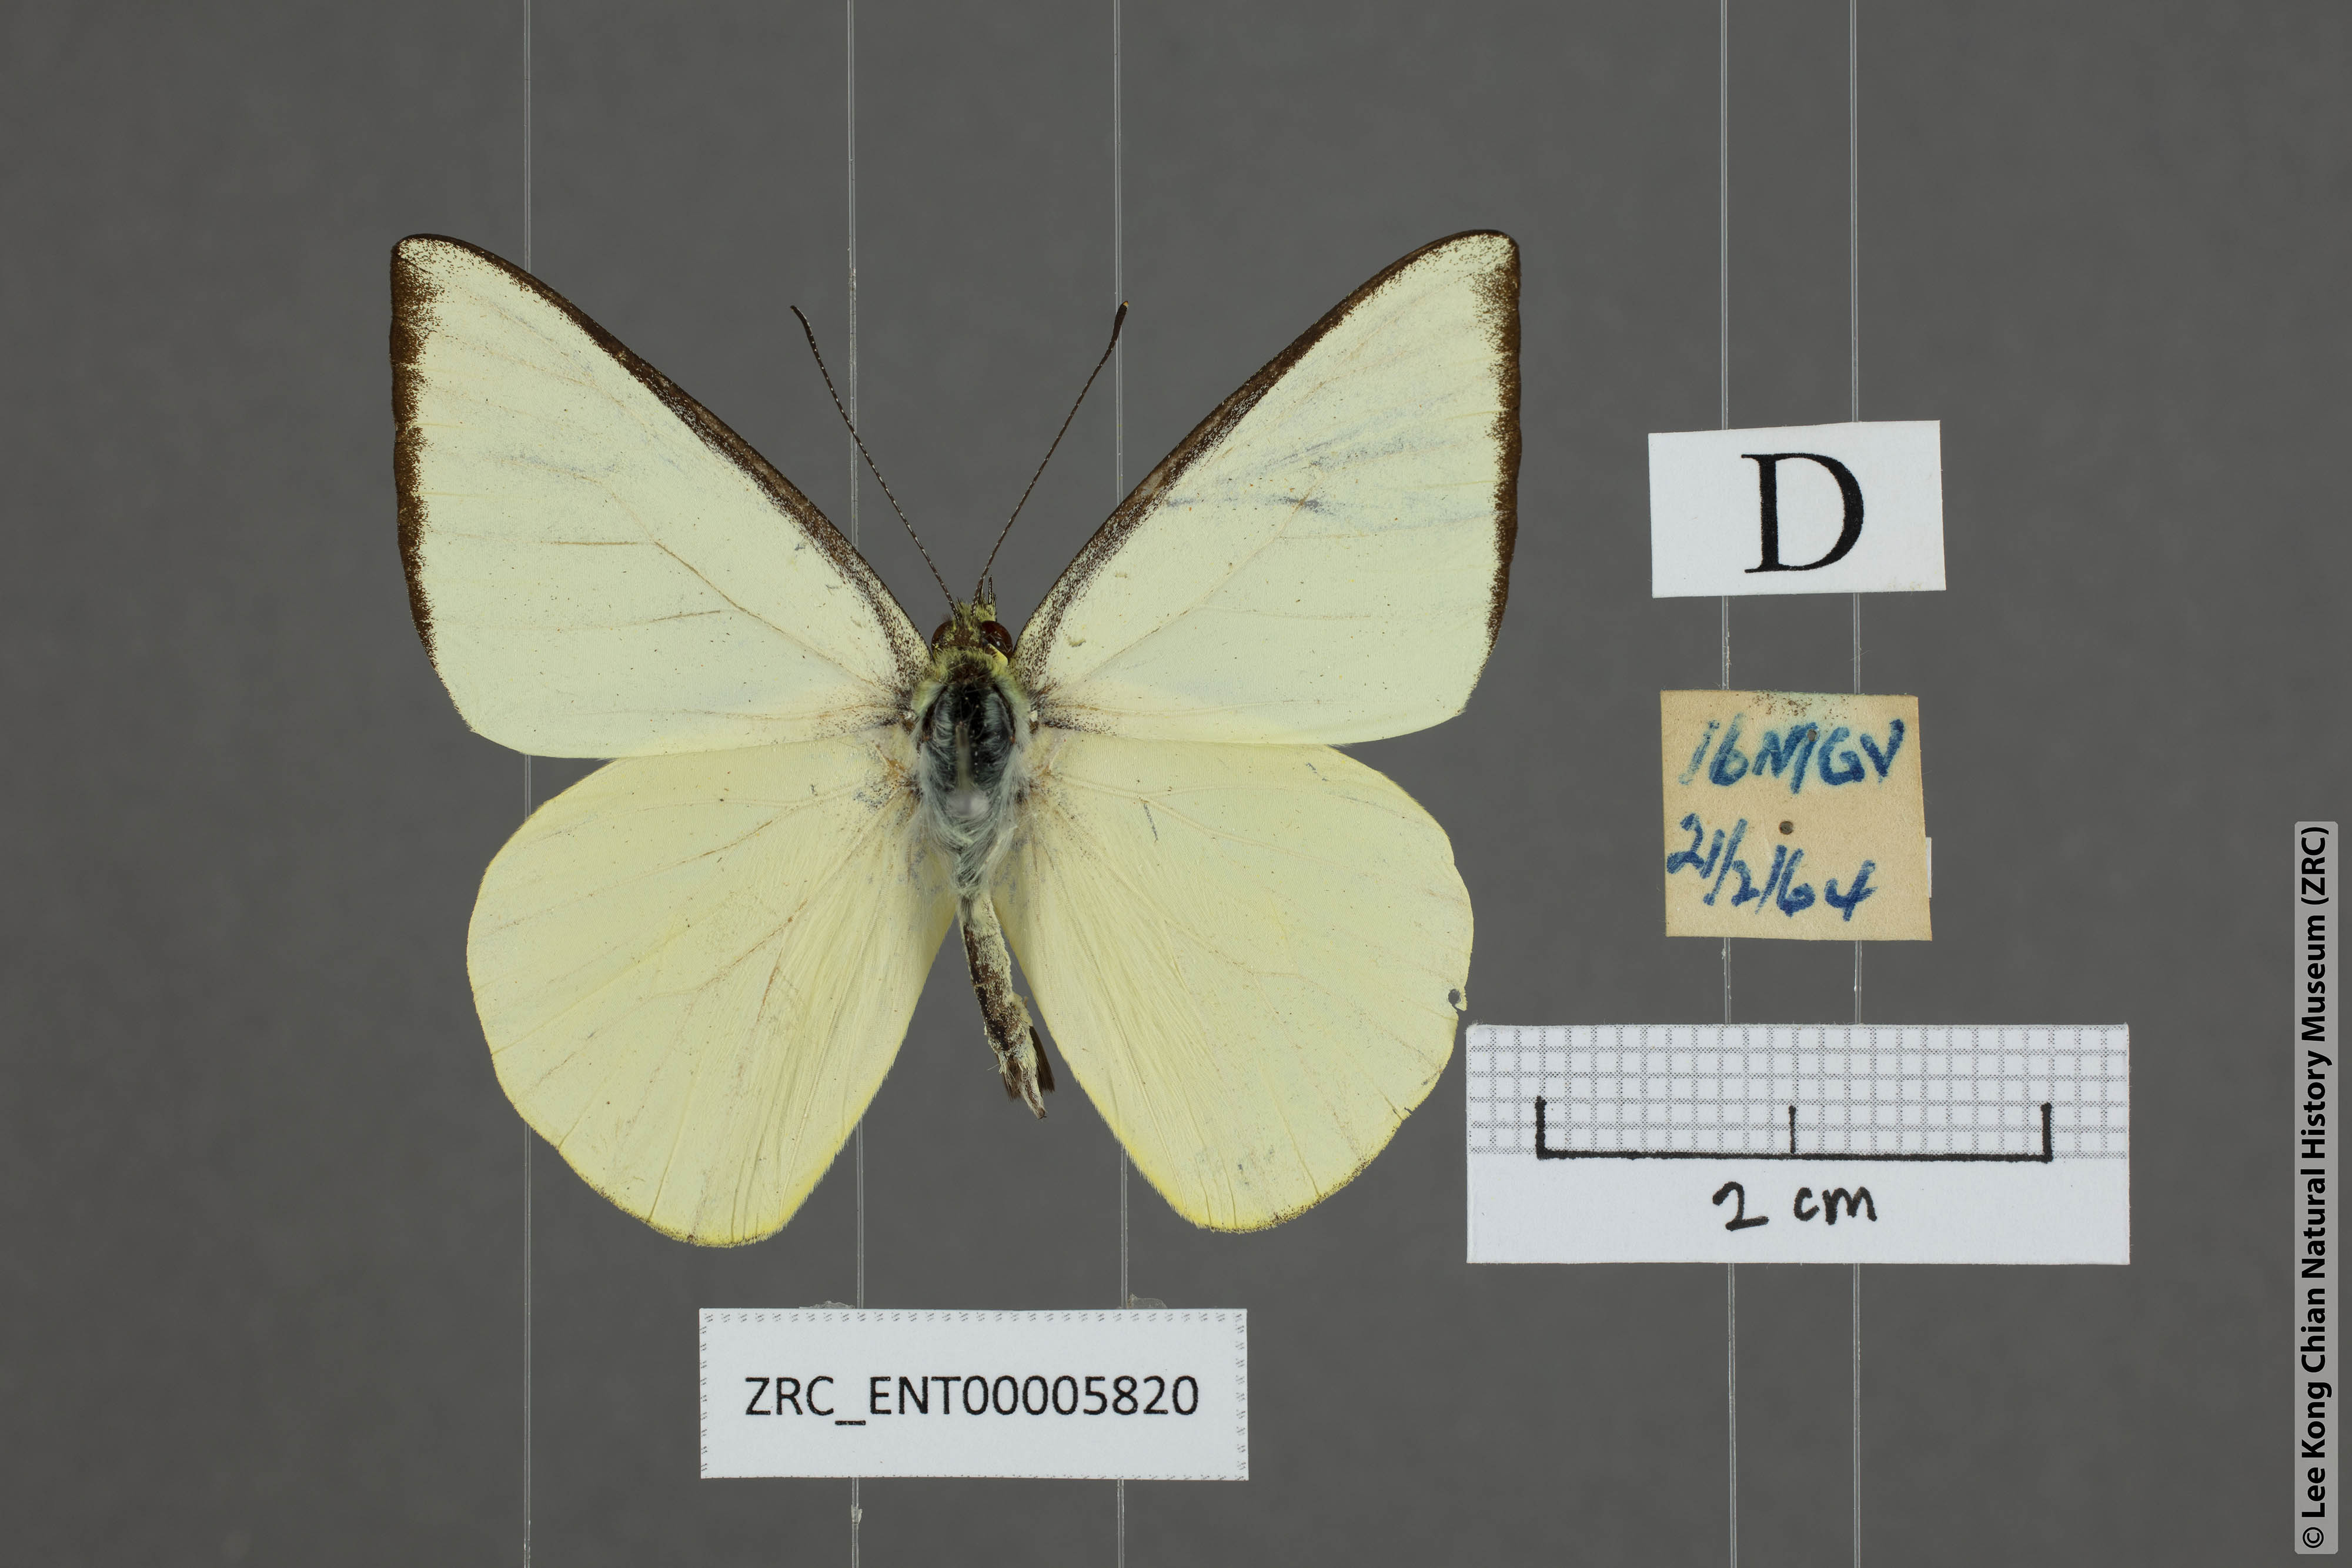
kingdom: Animalia
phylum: Arthropoda
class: Insecta
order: Lepidoptera
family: Pieridae
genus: Saletara
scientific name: Saletara liberia
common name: Pointed albatross
